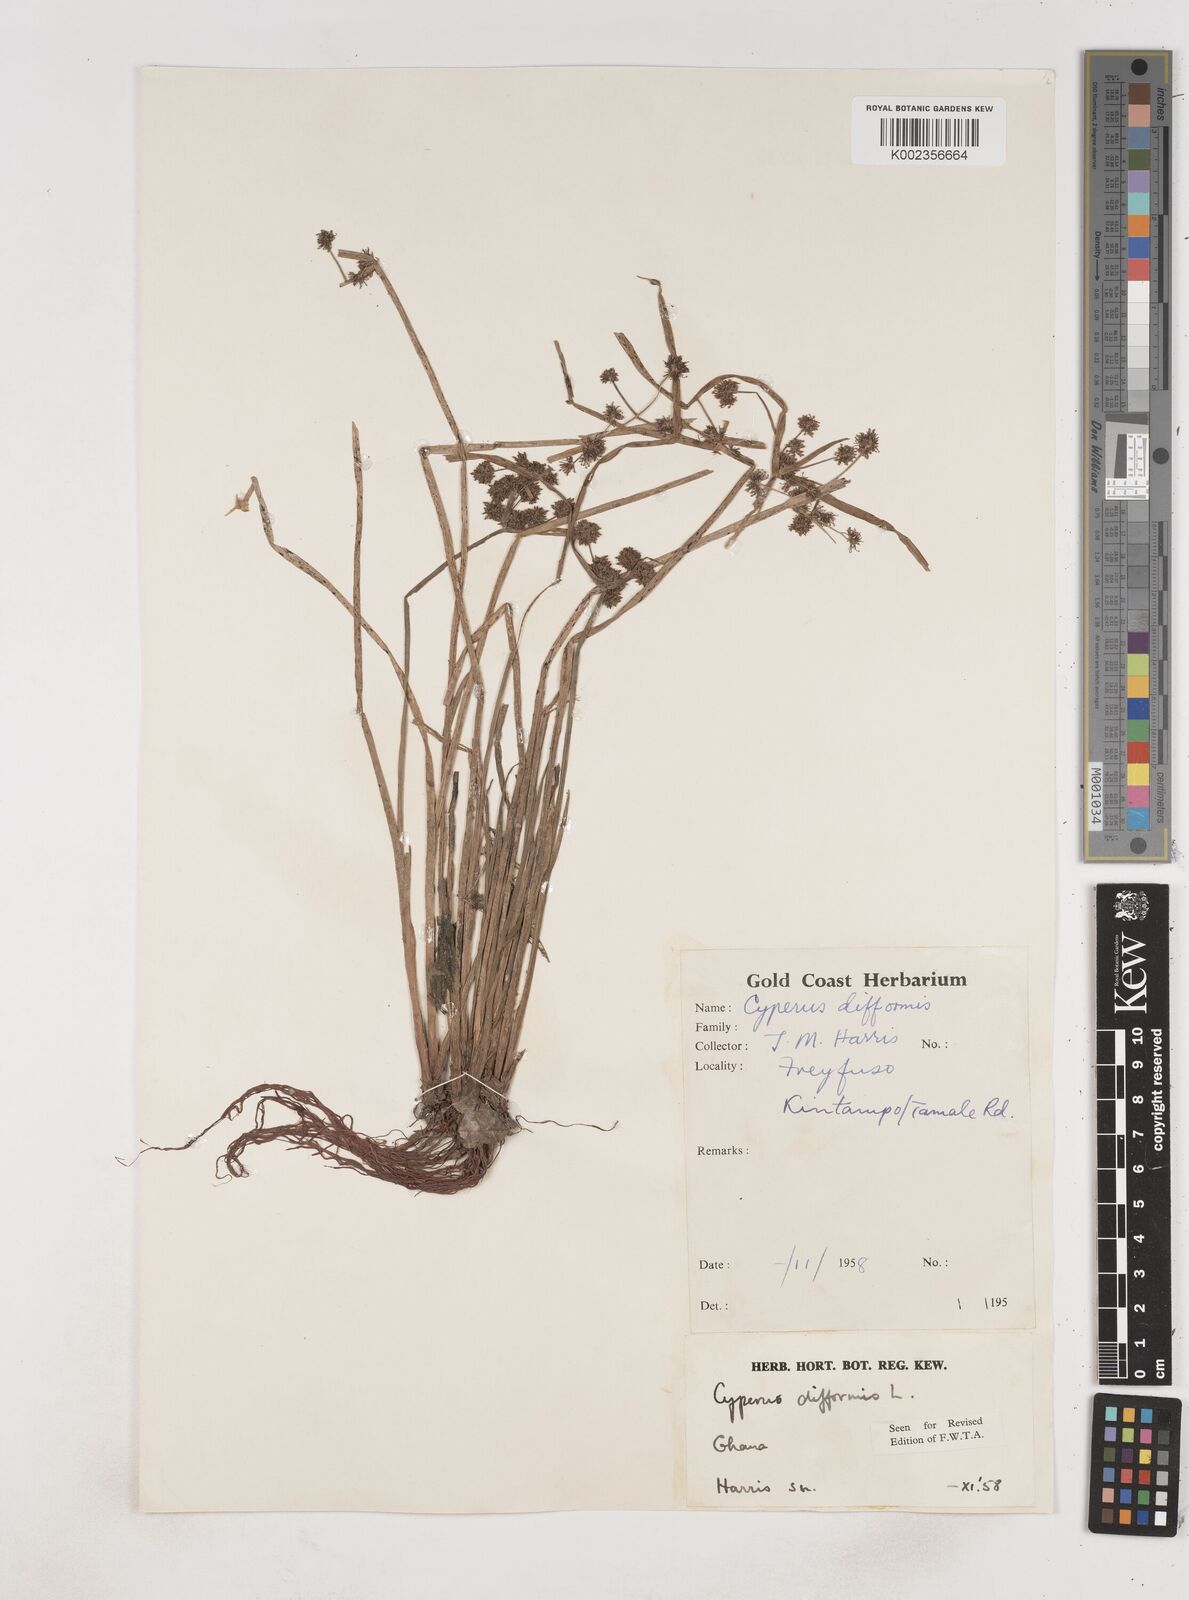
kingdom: Plantae
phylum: Tracheophyta
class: Liliopsida
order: Poales
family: Cyperaceae
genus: Cyperus
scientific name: Cyperus difformis
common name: Variable flatsedge
